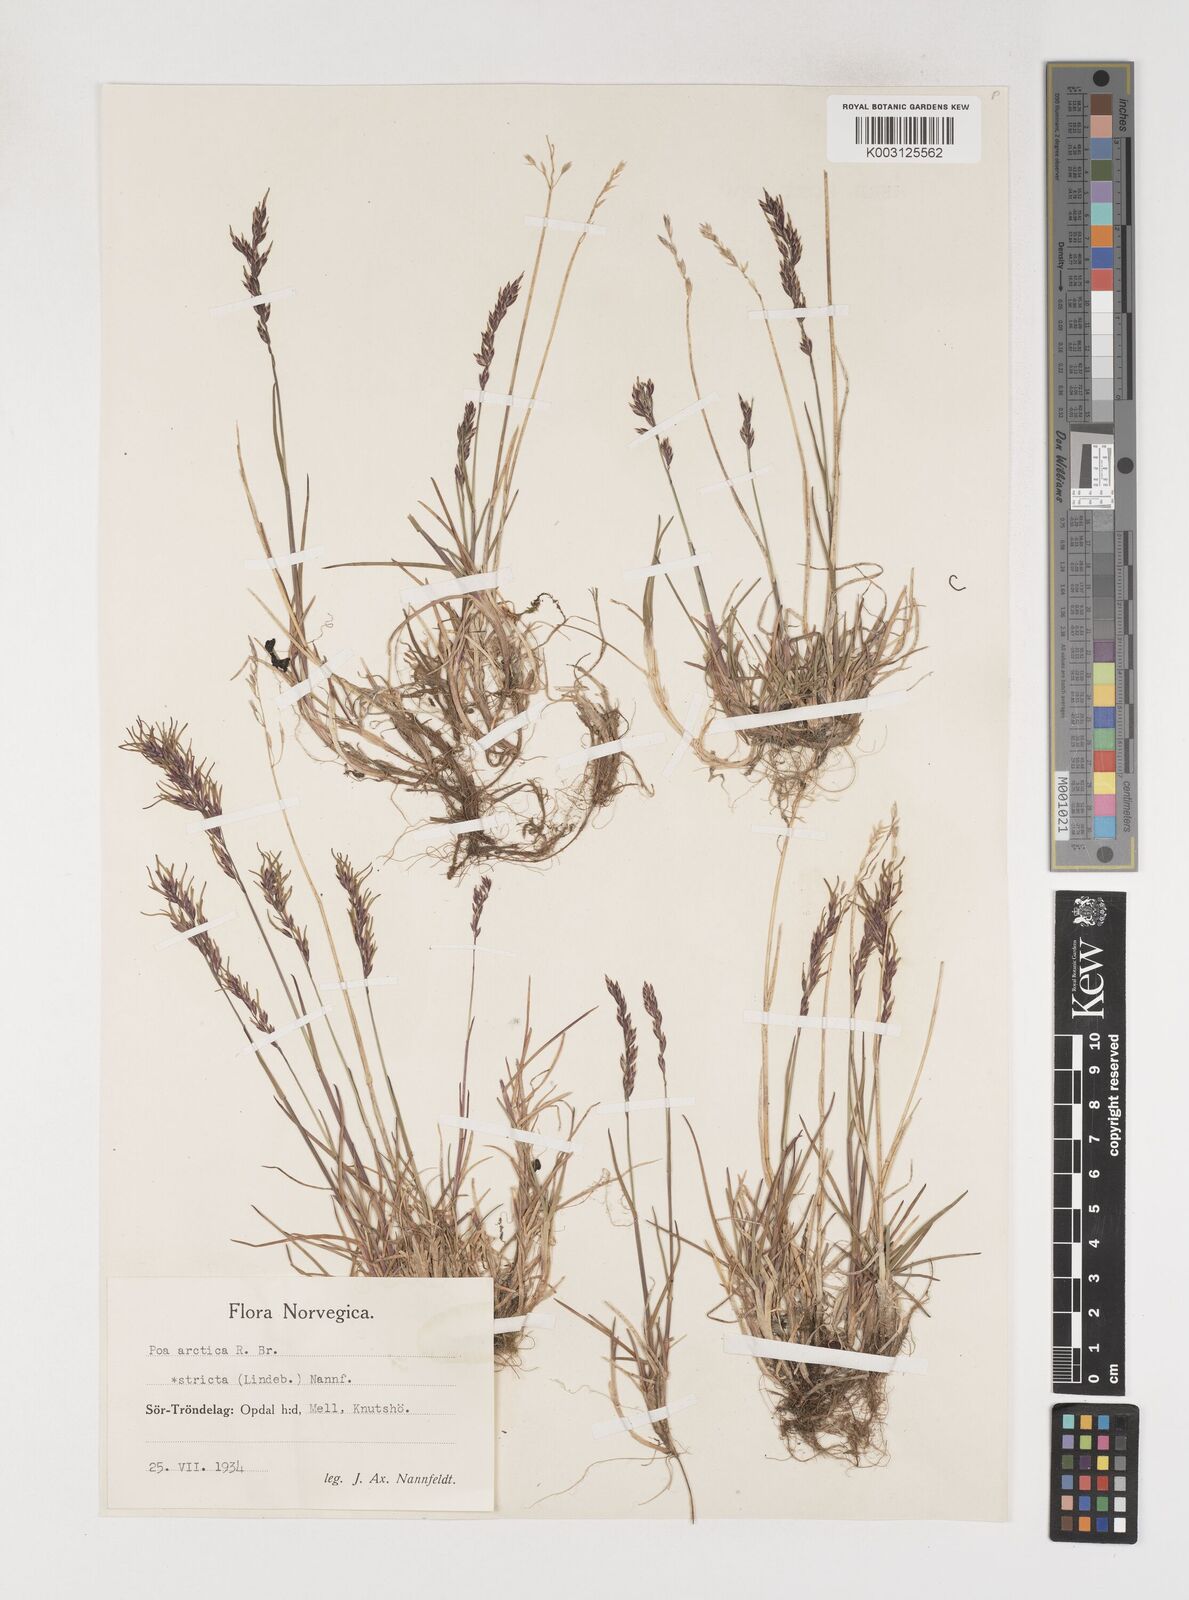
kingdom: Plantae
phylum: Tracheophyta
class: Liliopsida
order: Poales
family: Poaceae
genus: Poa
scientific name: Poa arctica
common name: Arctic bluegrass
